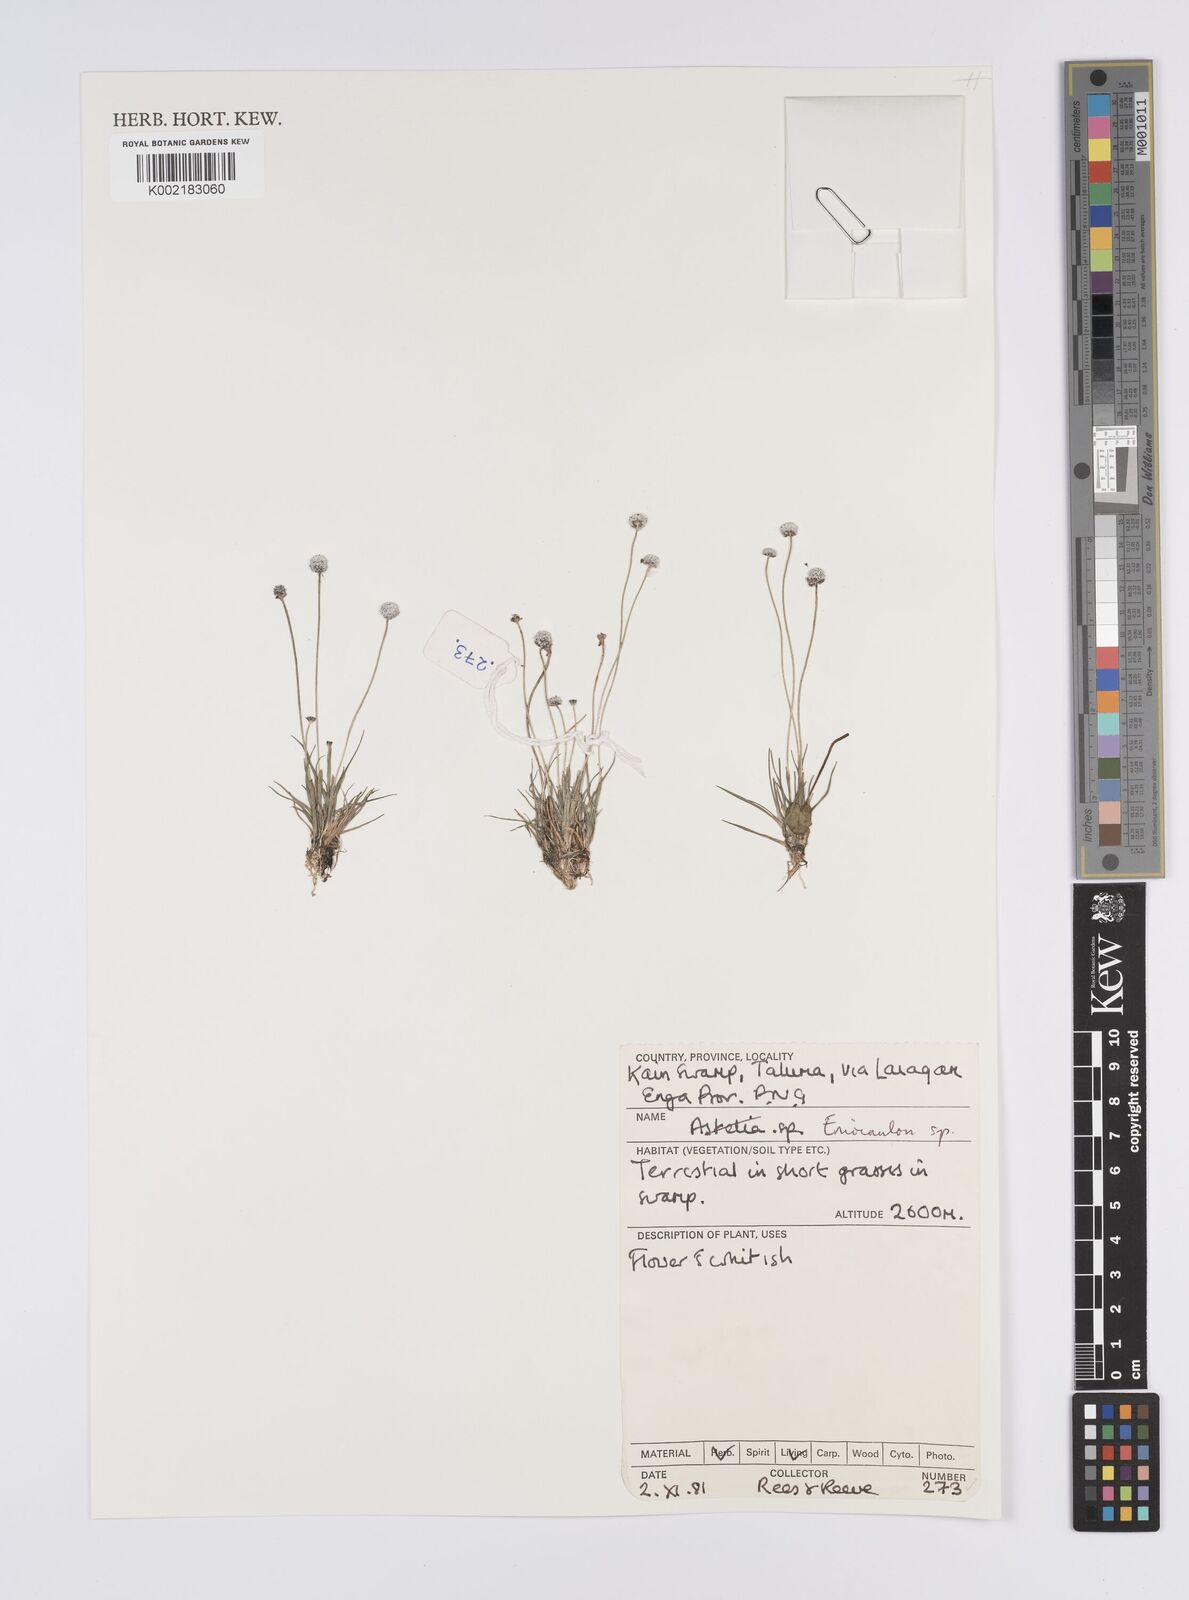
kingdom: Plantae
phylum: Tracheophyta
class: Liliopsida
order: Poales
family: Eriocaulaceae
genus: Eriocaulon
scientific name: Eriocaulon
